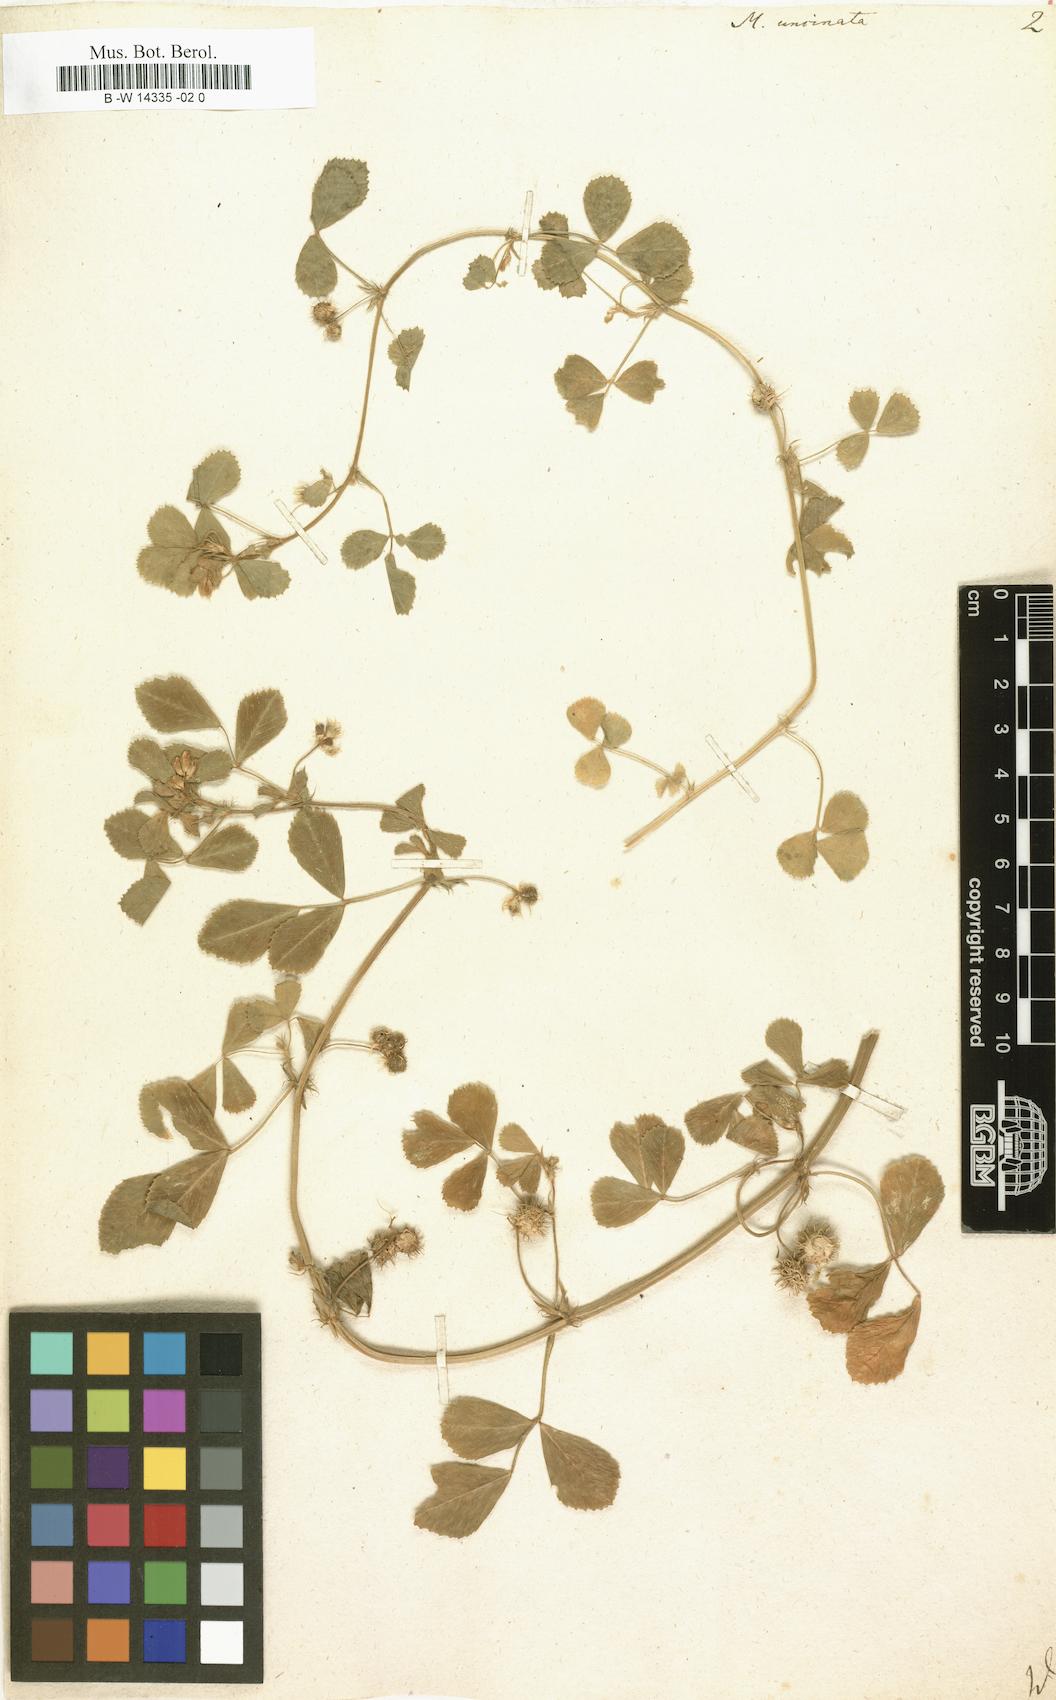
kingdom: Plantae
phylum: Tracheophyta
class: Magnoliopsida
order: Fabales
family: Fabaceae
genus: Medicago
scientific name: Medicago truncatula
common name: Strong-spined medick
